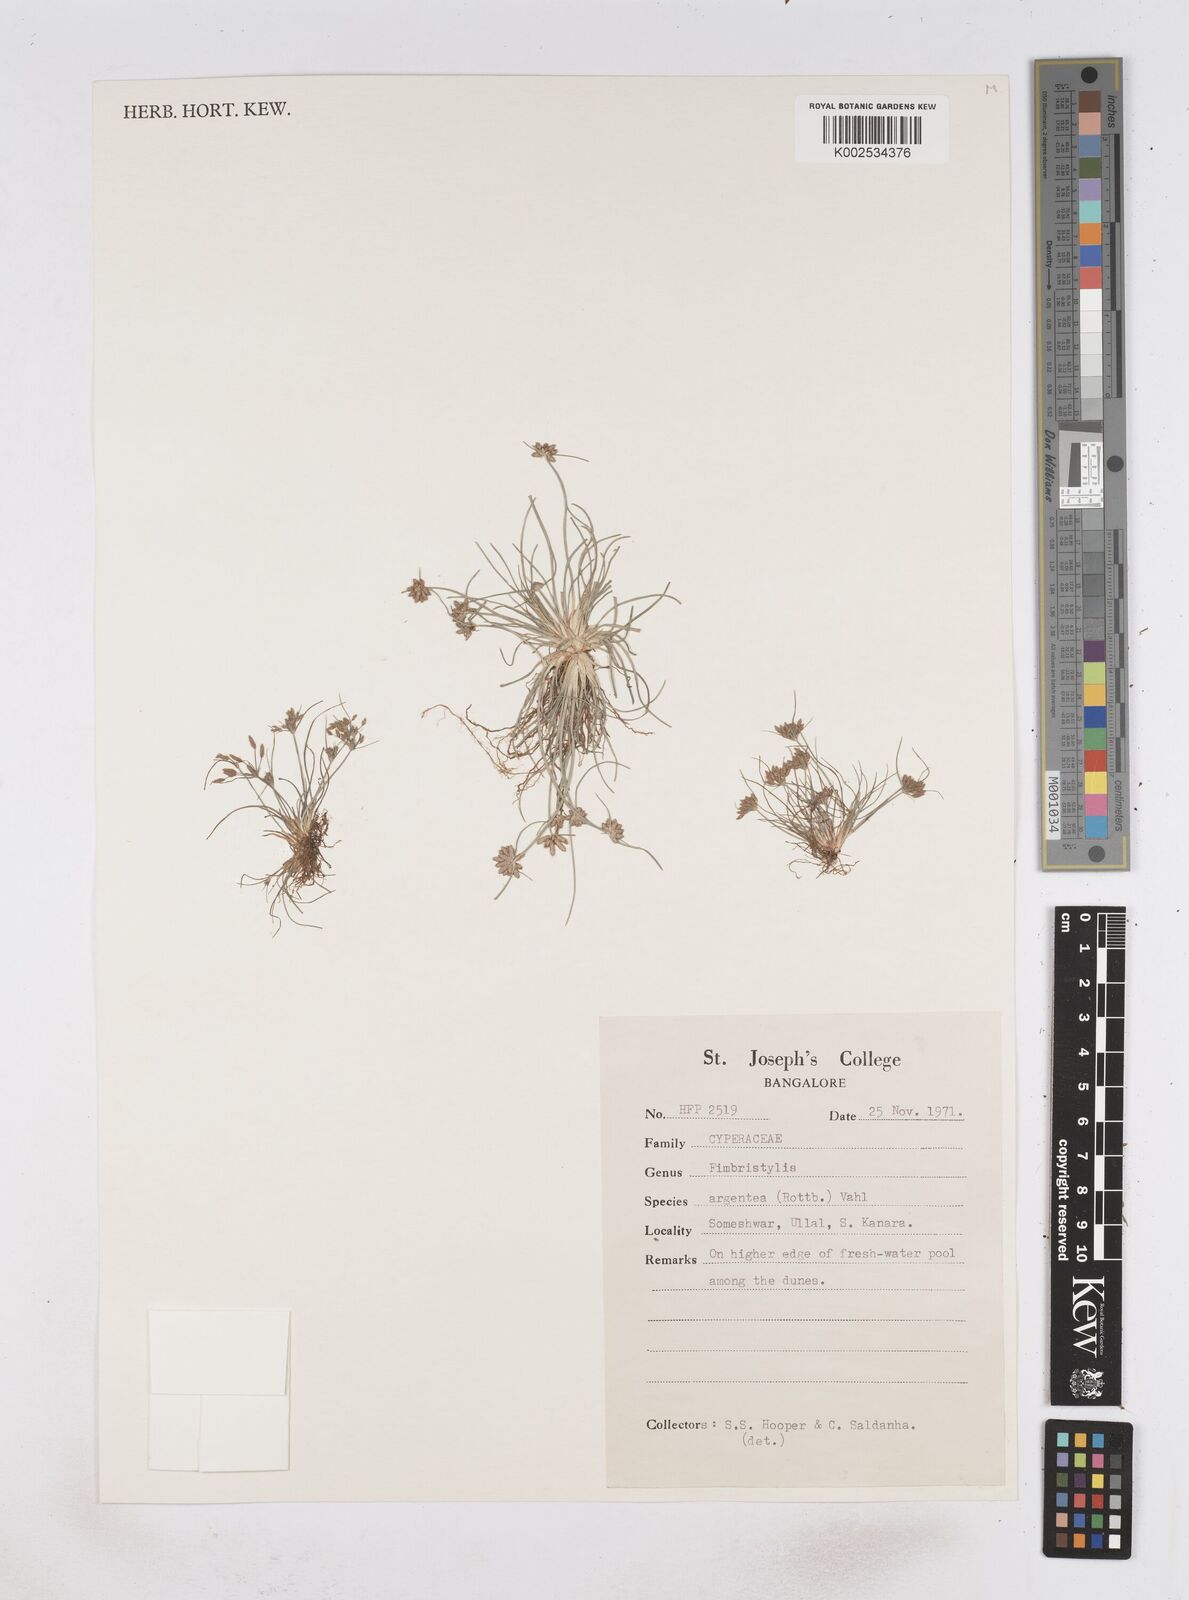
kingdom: Plantae
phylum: Tracheophyta
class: Liliopsida
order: Poales
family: Cyperaceae
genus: Fimbristylis
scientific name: Fimbristylis argentea
